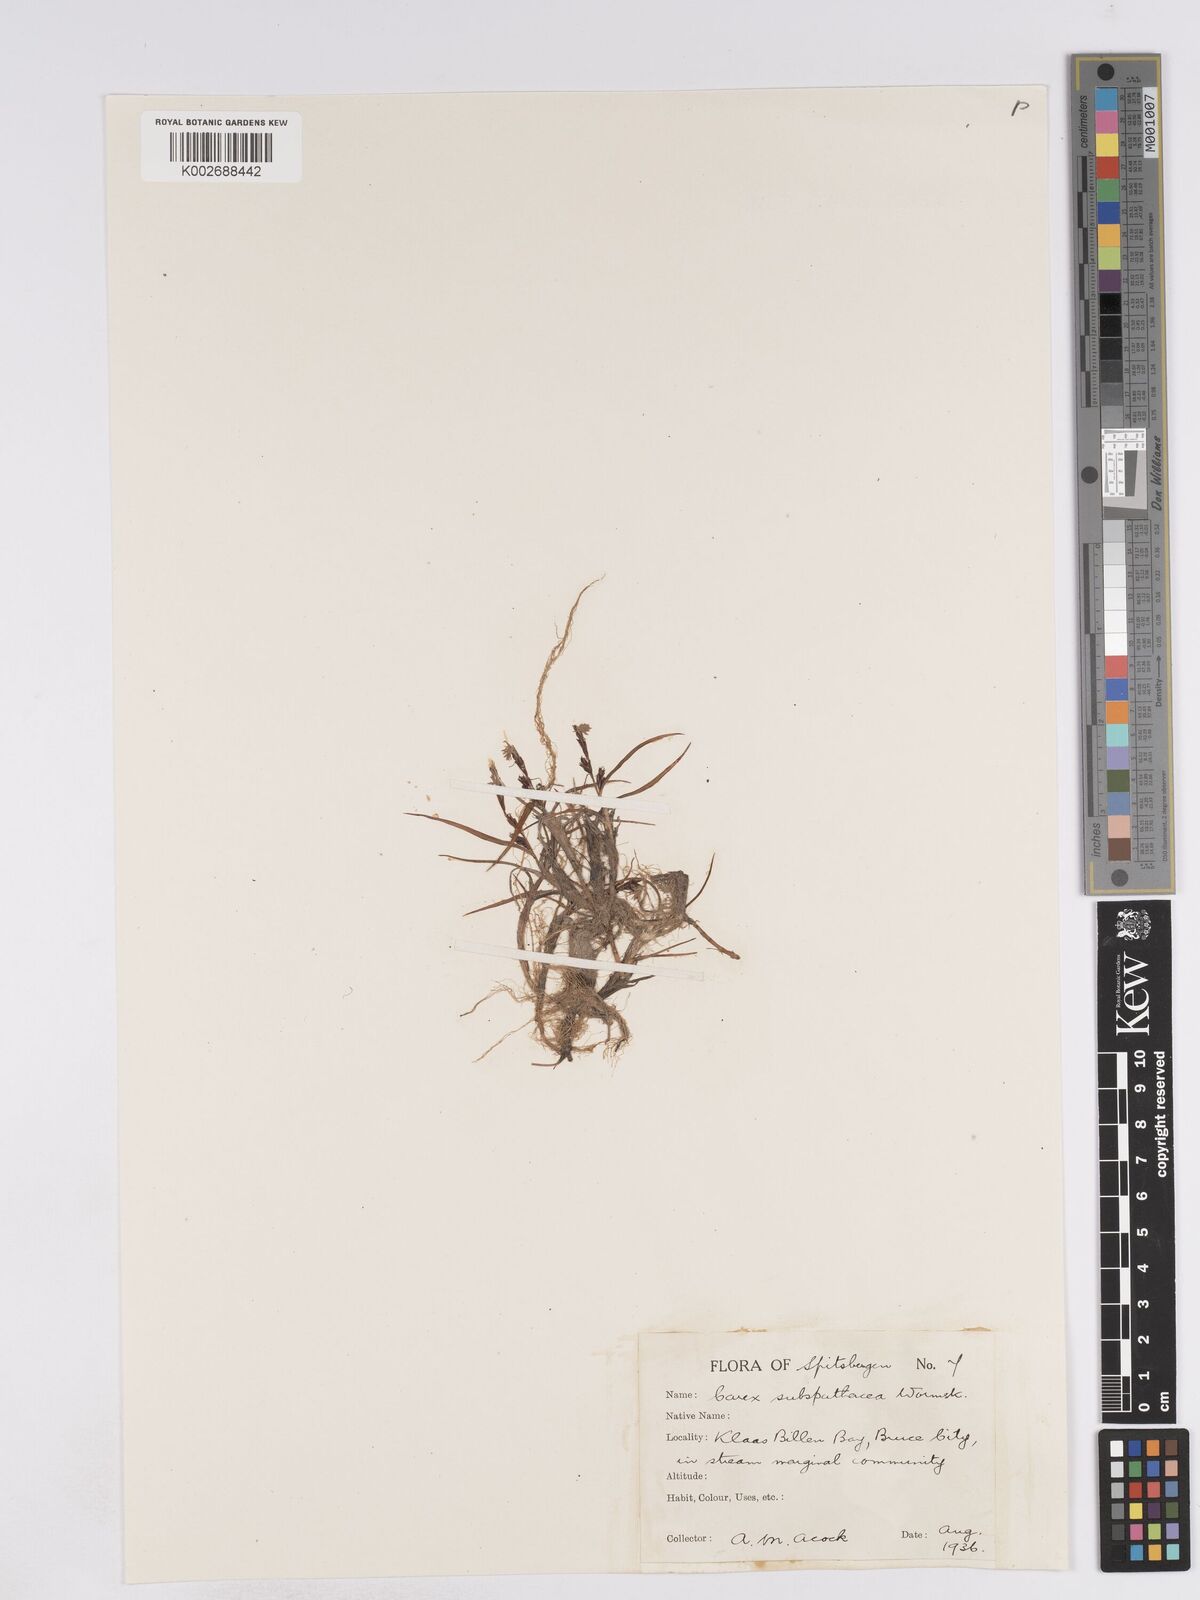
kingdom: Plantae
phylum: Tracheophyta
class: Liliopsida
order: Poales
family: Cyperaceae
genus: Carex
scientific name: Carex subspathacea
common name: Hoppner's sedge
